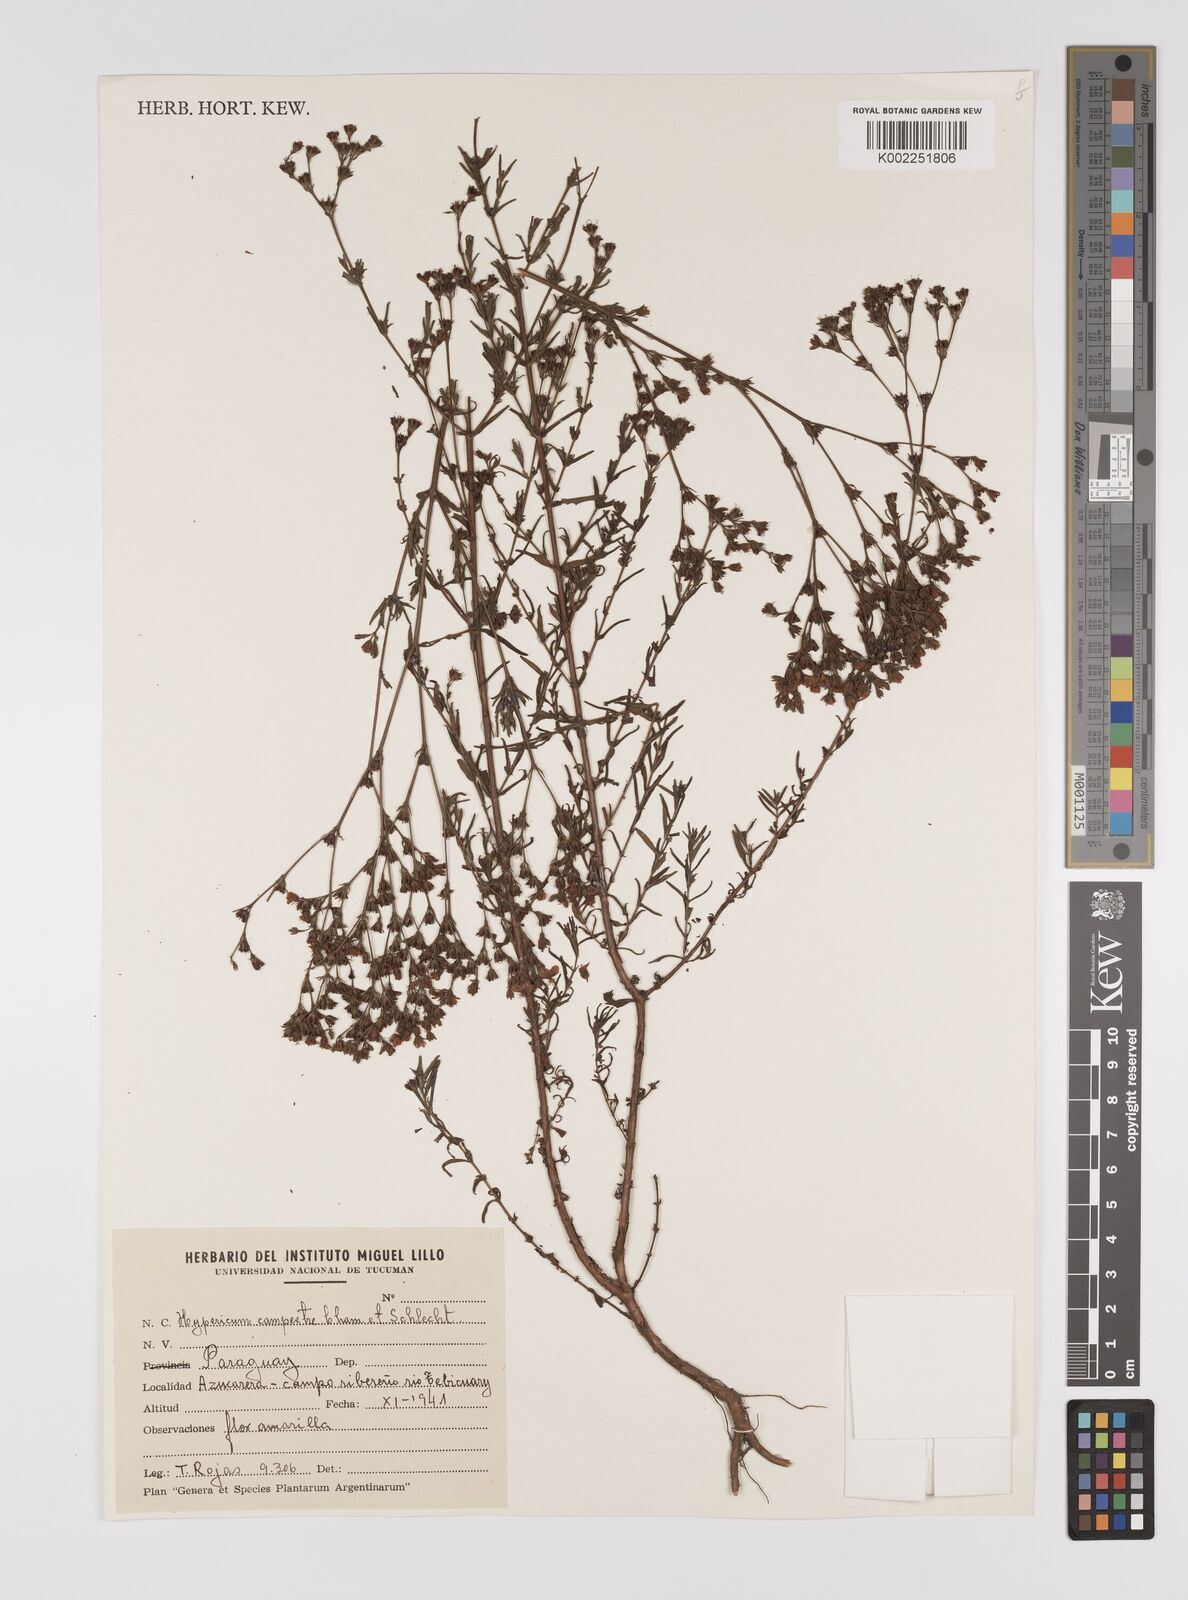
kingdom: Plantae
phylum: Tracheophyta
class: Magnoliopsida
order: Malpighiales
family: Hypericaceae
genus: Hypericum
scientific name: Hypericum lorentzianum
